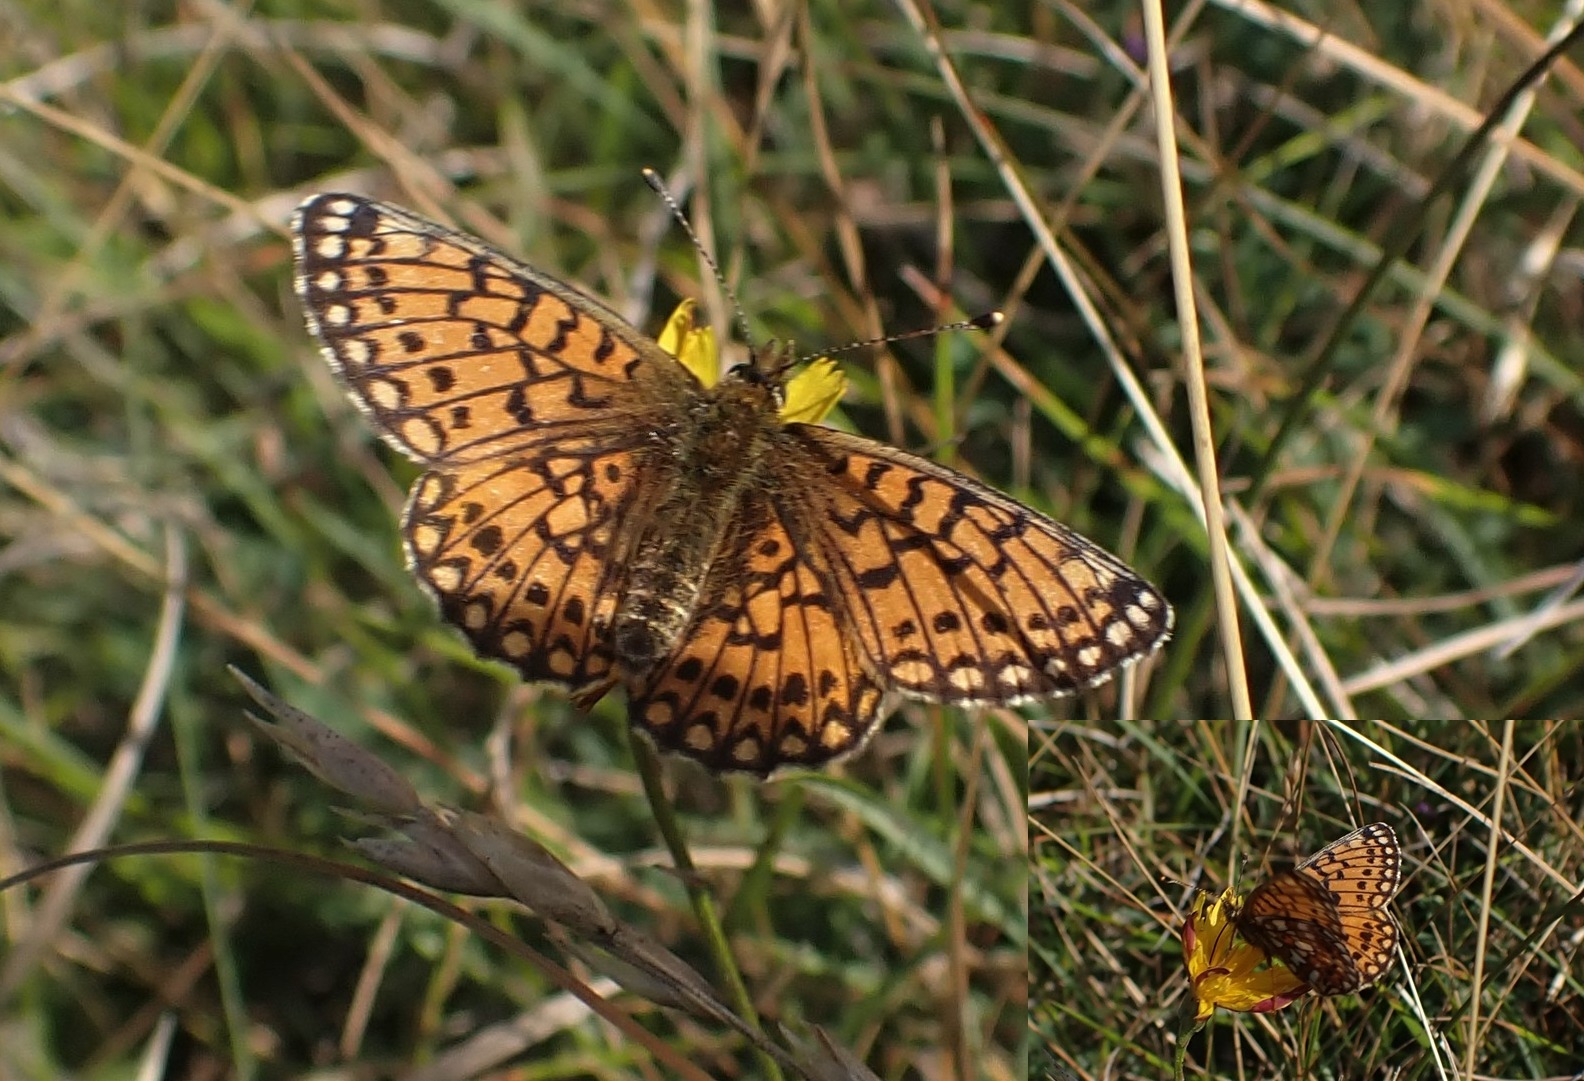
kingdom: Animalia
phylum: Arthropoda
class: Insecta
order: Lepidoptera
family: Nymphalidae
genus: Boloria
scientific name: Boloria selene
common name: Brunlig perlemorsommerfugl
